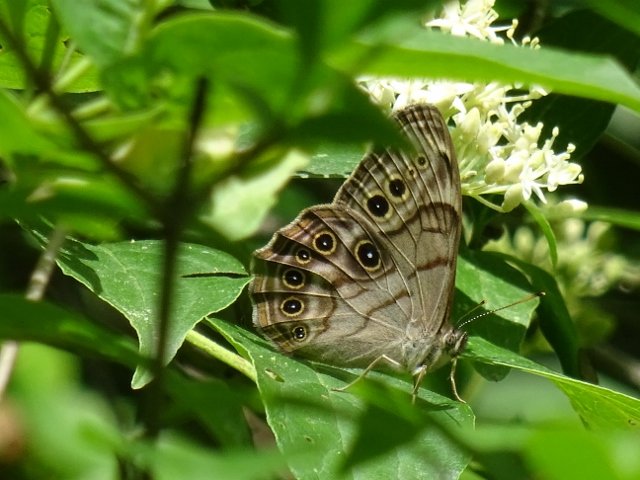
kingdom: Animalia
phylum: Arthropoda
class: Insecta
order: Lepidoptera
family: Nymphalidae
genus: Lethe
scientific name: Lethe anthedon
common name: Northern Pearly-Eye
